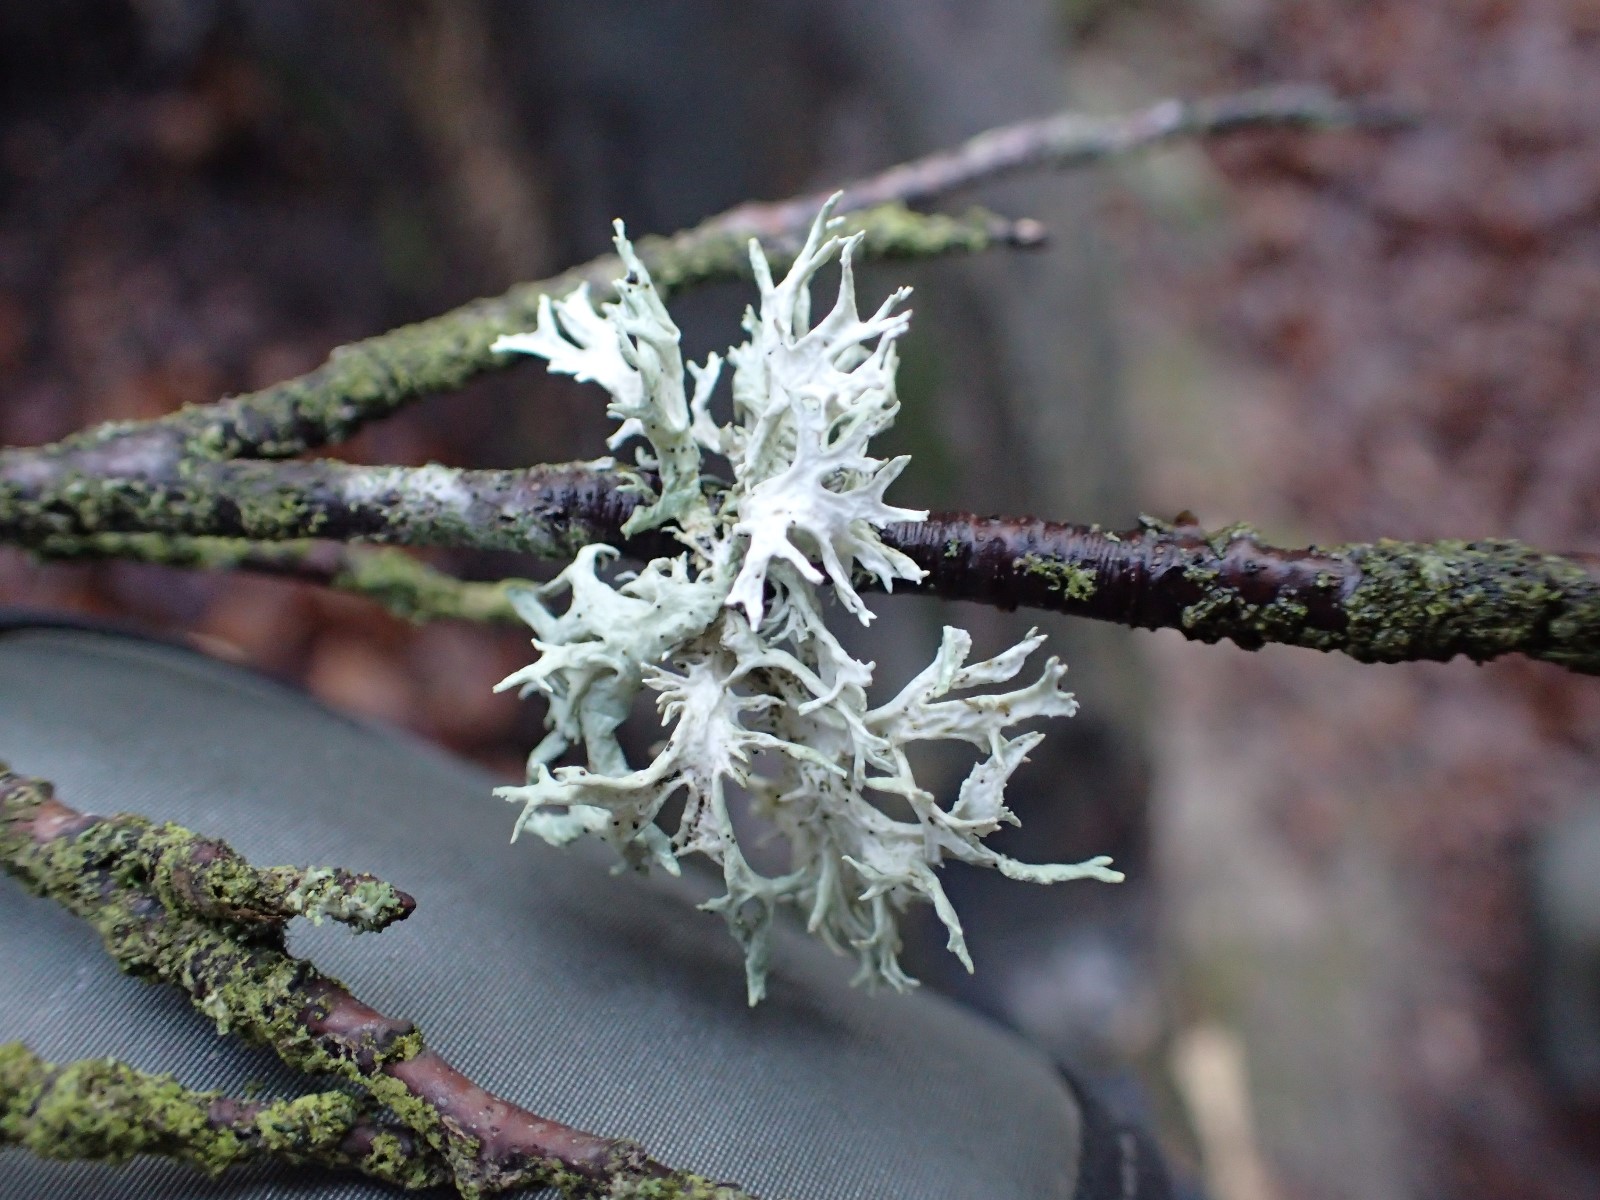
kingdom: Fungi
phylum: Ascomycota
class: Lecanoromycetes
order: Lecanorales
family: Parmeliaceae
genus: Evernia
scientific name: Evernia prunastri
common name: almindelig slåenlav
